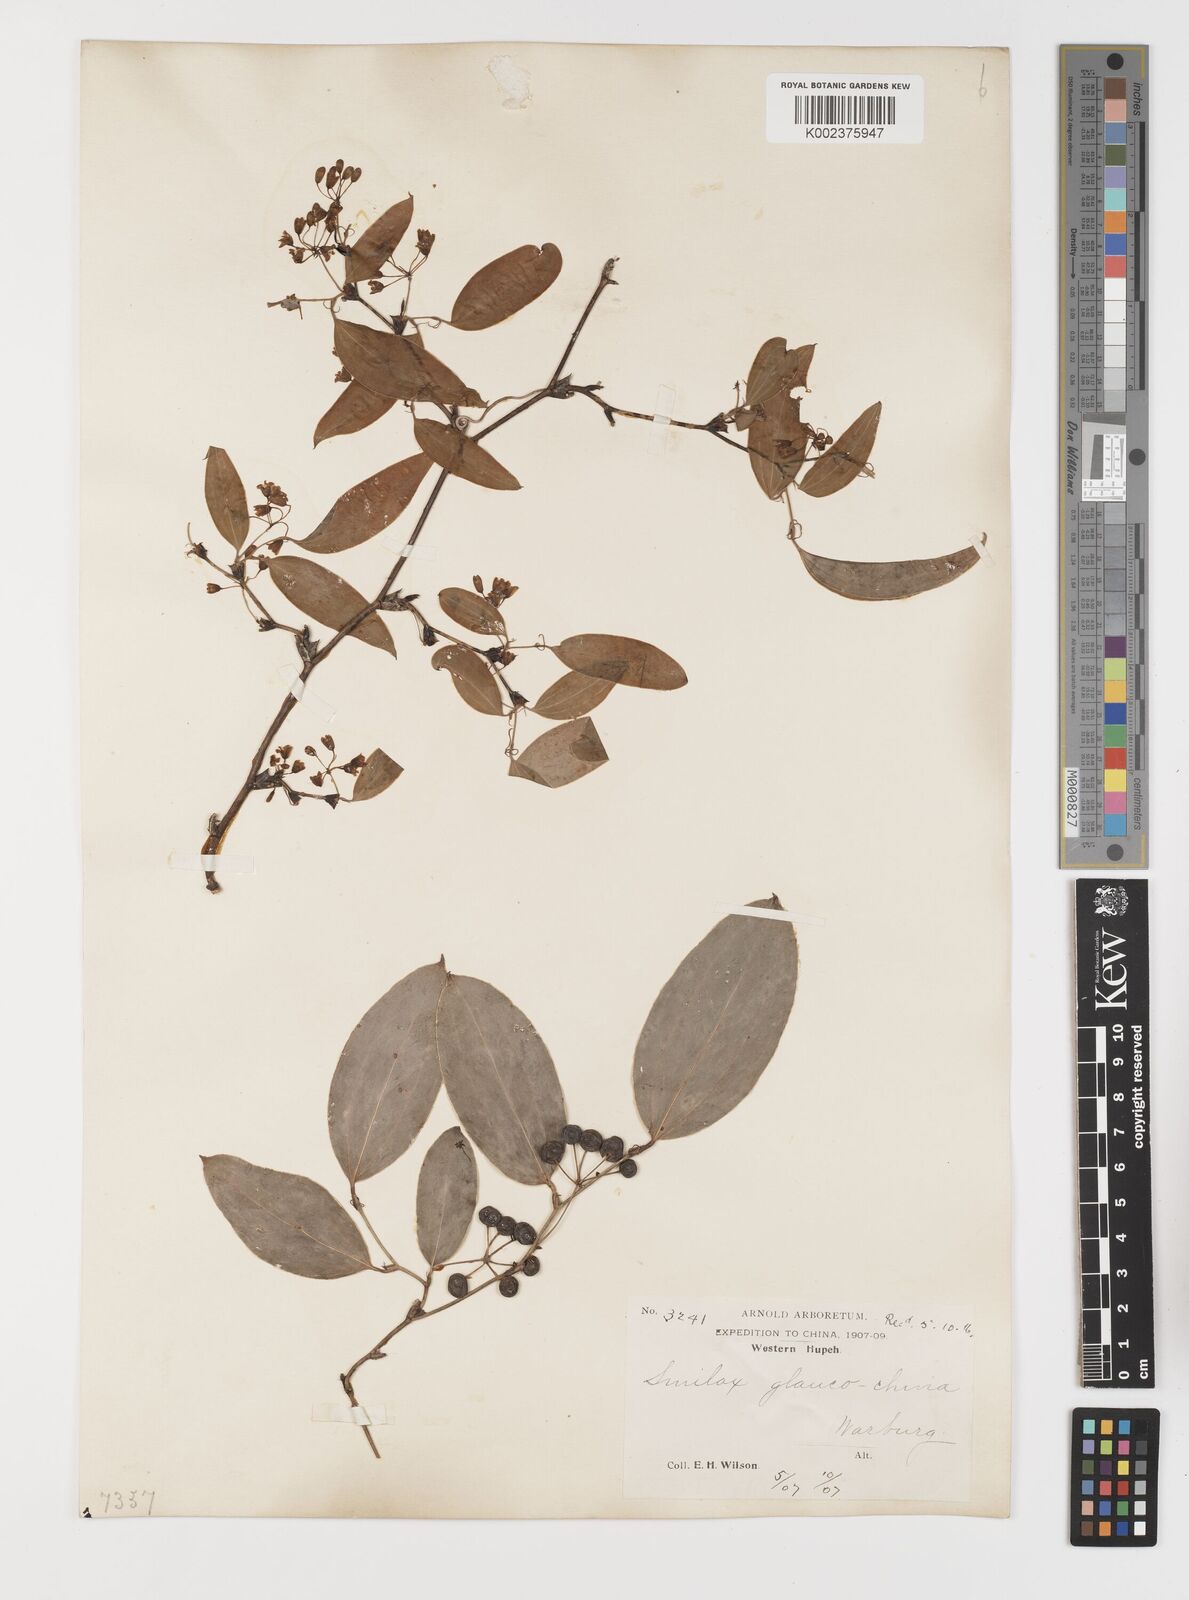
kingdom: Plantae
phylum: Tracheophyta
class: Liliopsida
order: Liliales
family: Smilacaceae
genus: Smilax
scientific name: Smilax glaucochina
